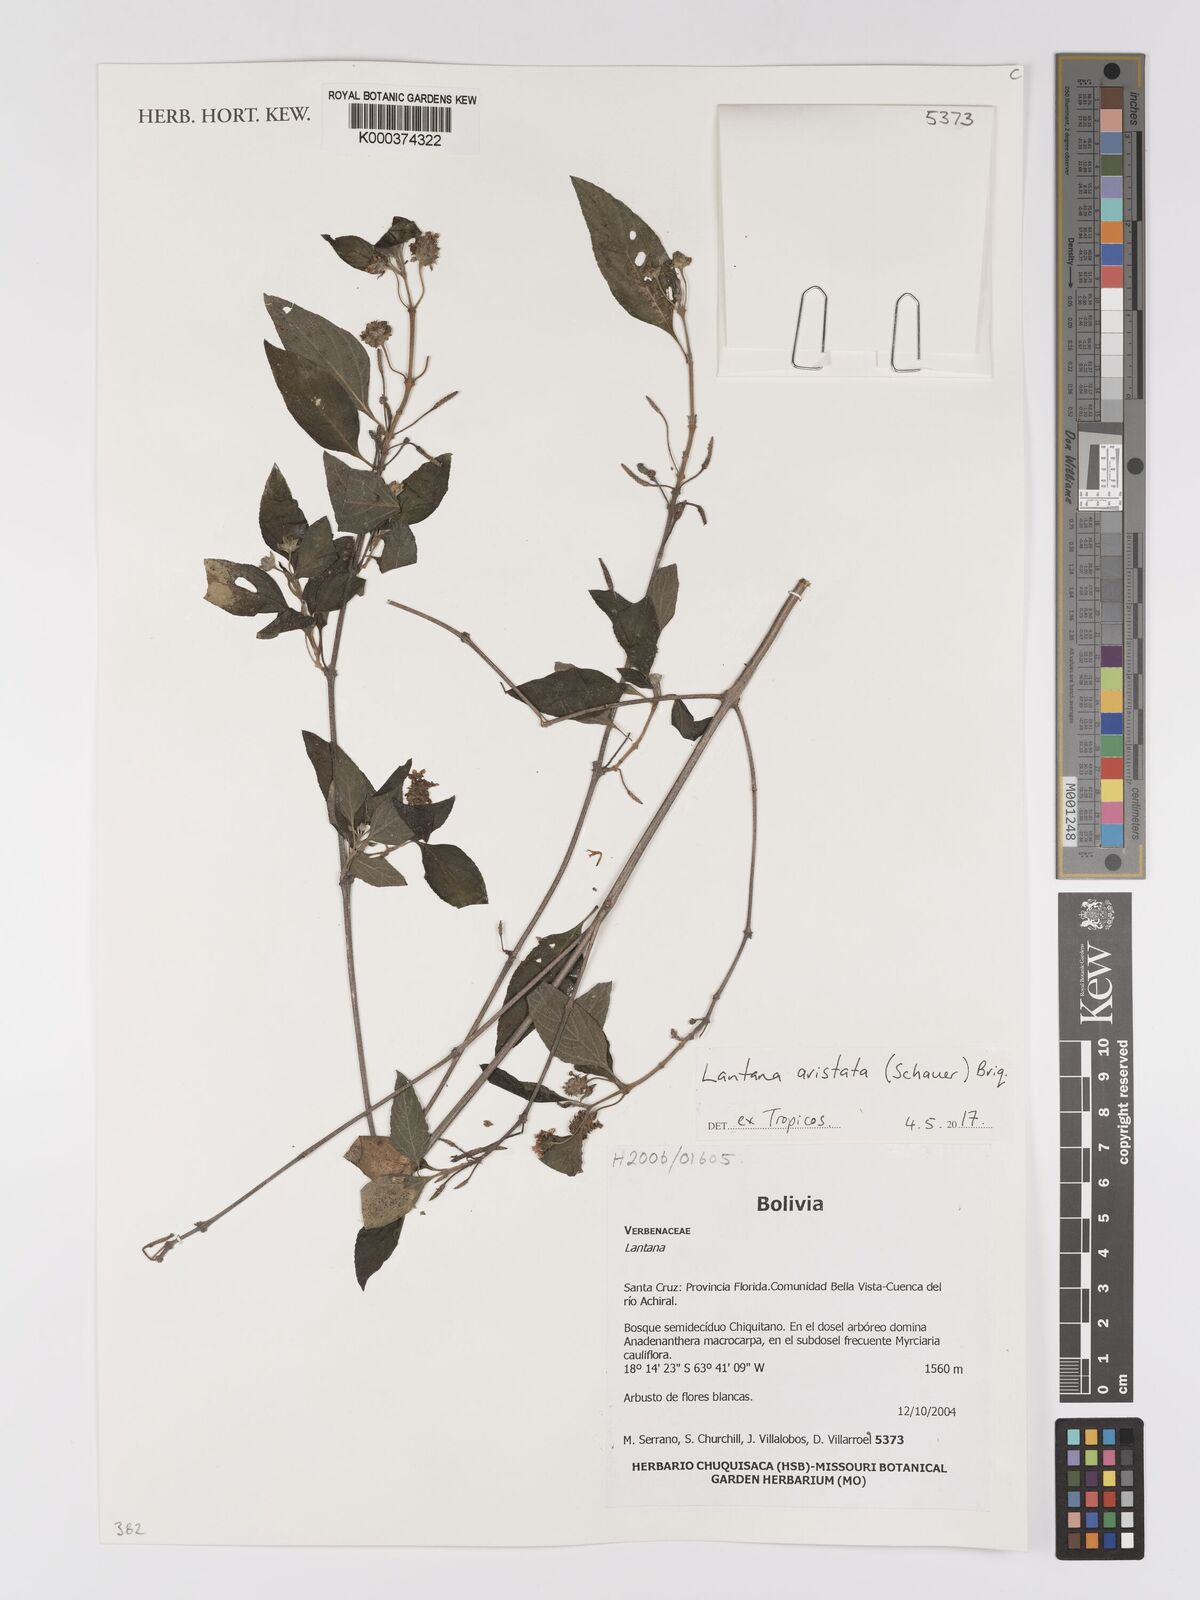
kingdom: Plantae
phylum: Tracheophyta
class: Magnoliopsida
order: Lamiales
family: Verbenaceae
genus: Lantana
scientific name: Lantana
